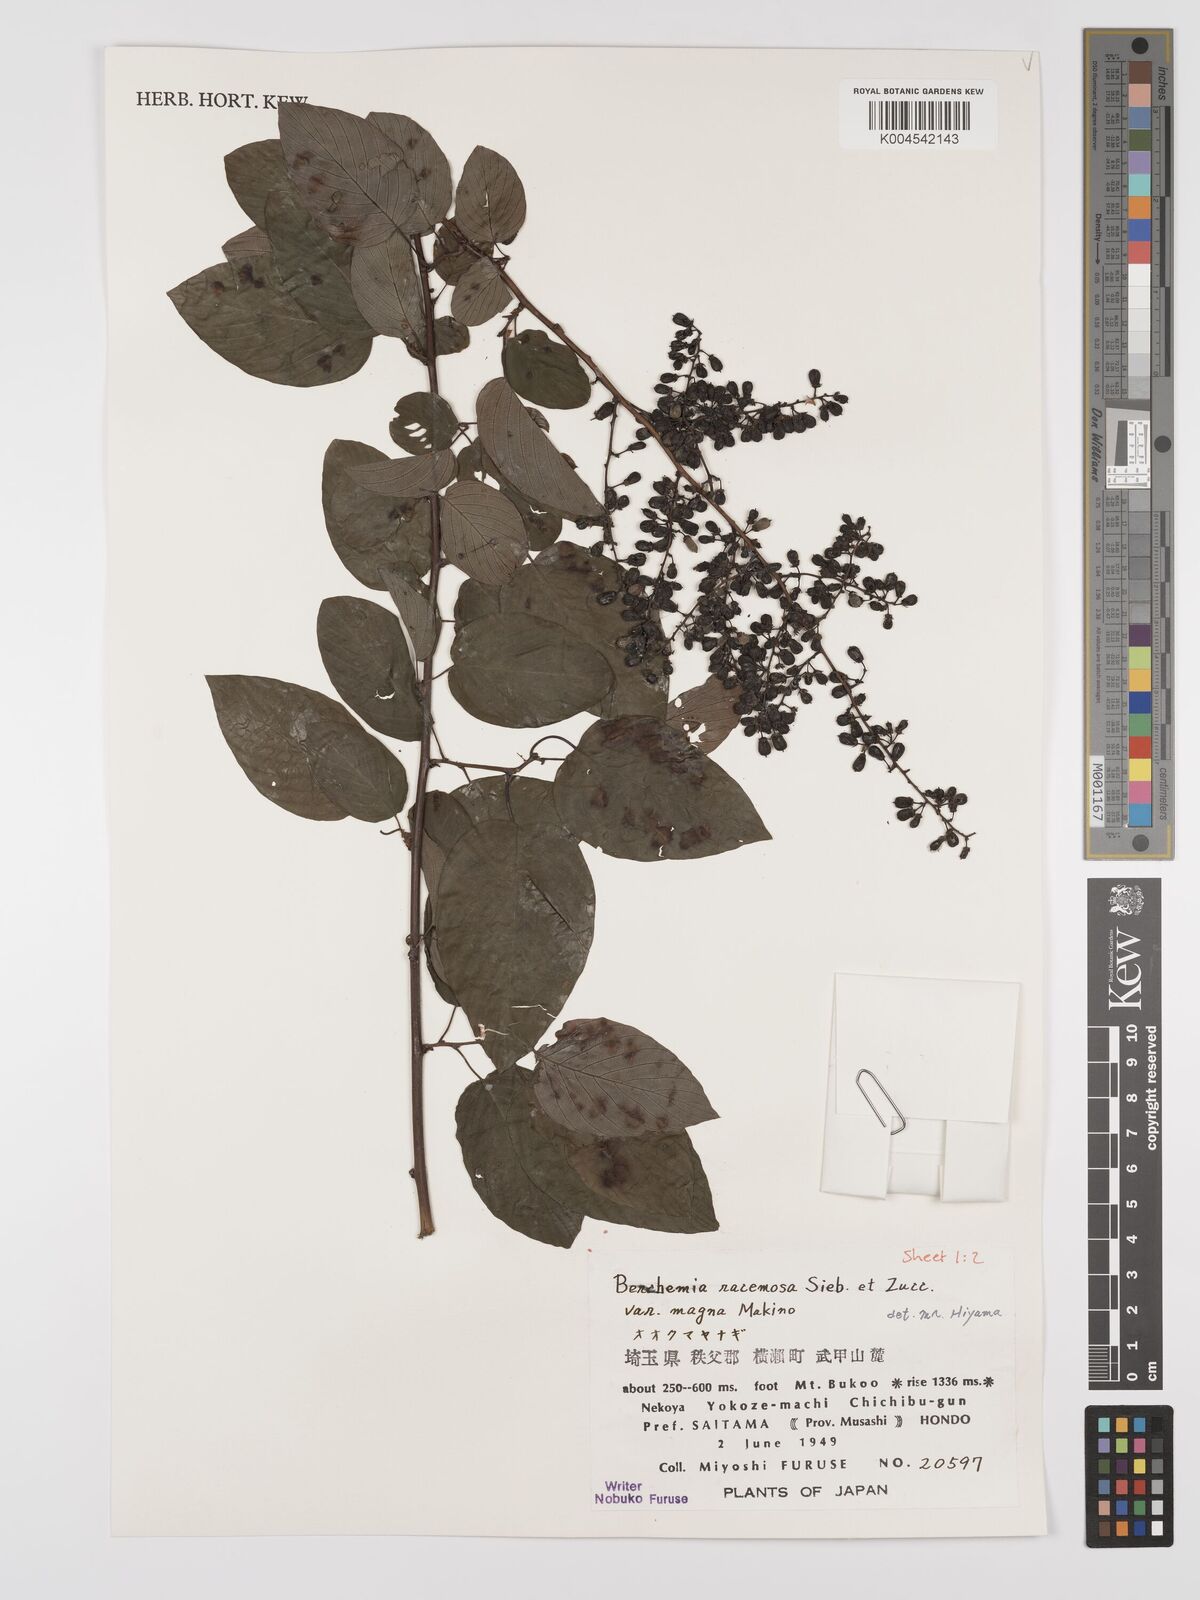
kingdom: Plantae
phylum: Tracheophyta
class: Magnoliopsida
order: Rosales
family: Rhamnaceae
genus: Berchemia
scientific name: Berchemia floribunda
